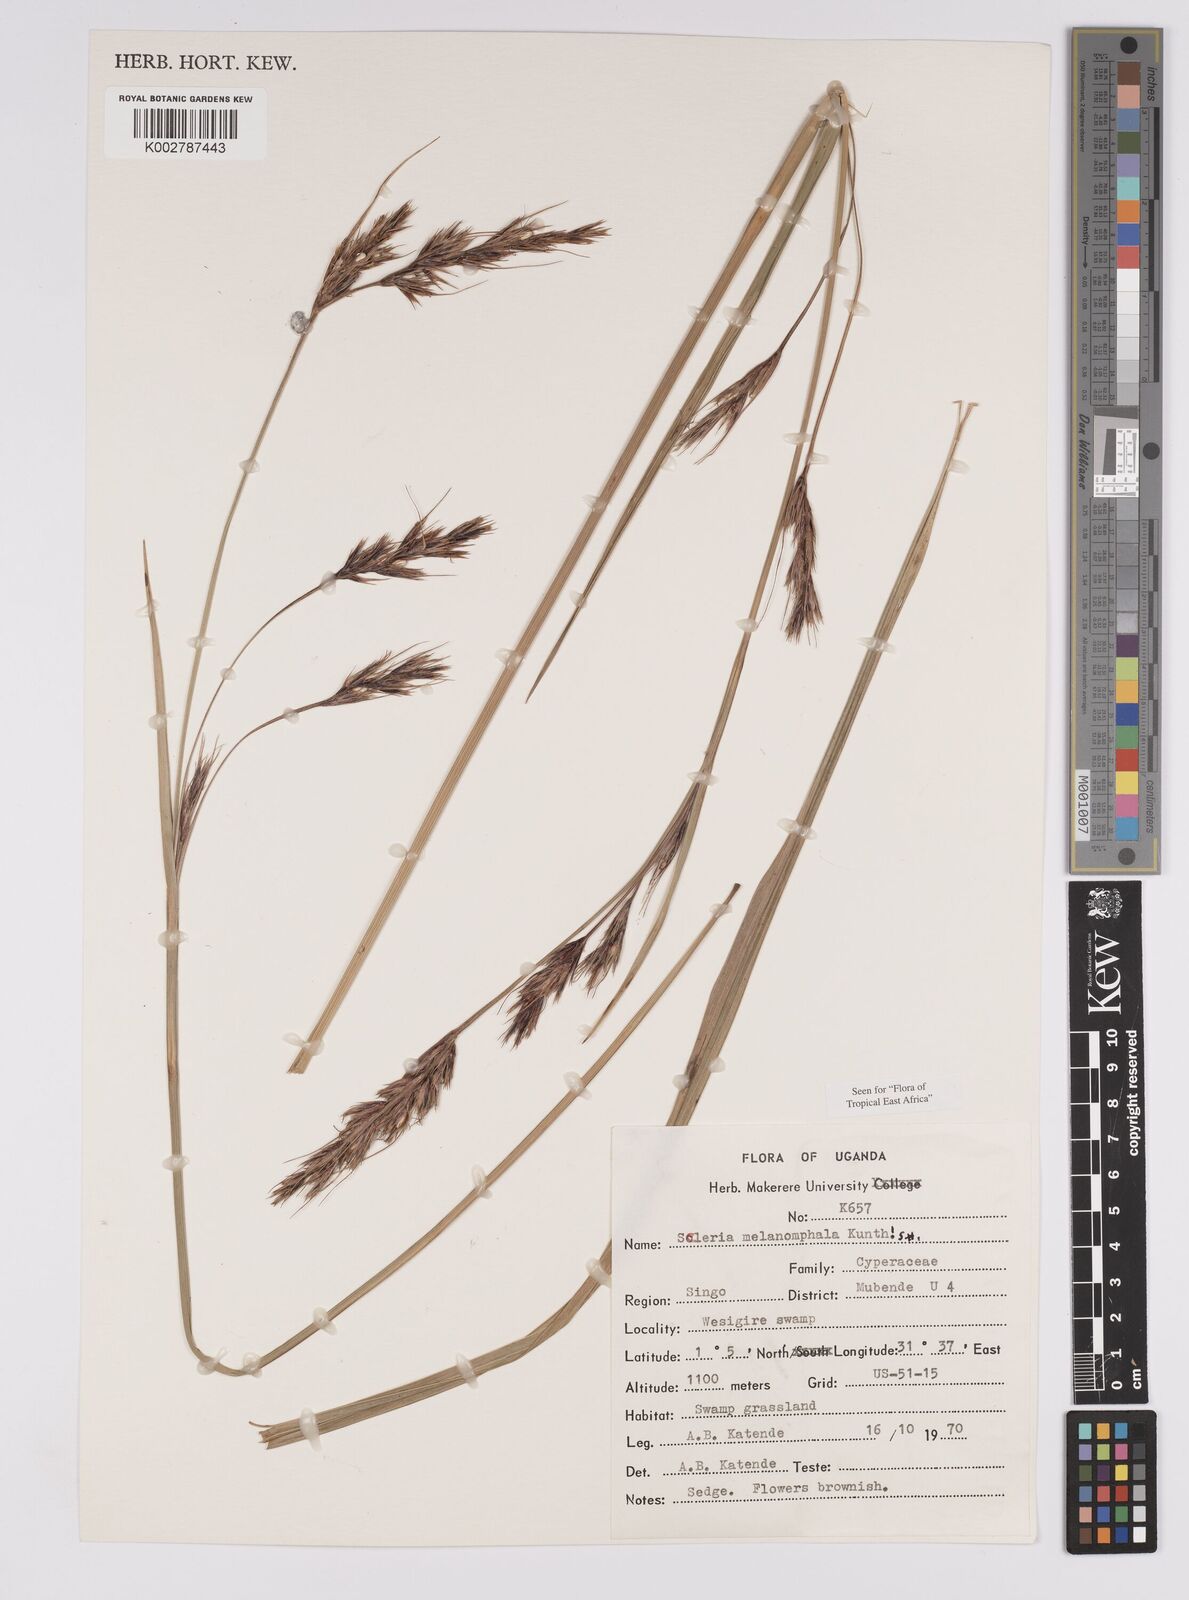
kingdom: Plantae
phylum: Tracheophyta
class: Liliopsida
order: Poales
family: Cyperaceae
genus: Scleria
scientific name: Scleria melanomphala
